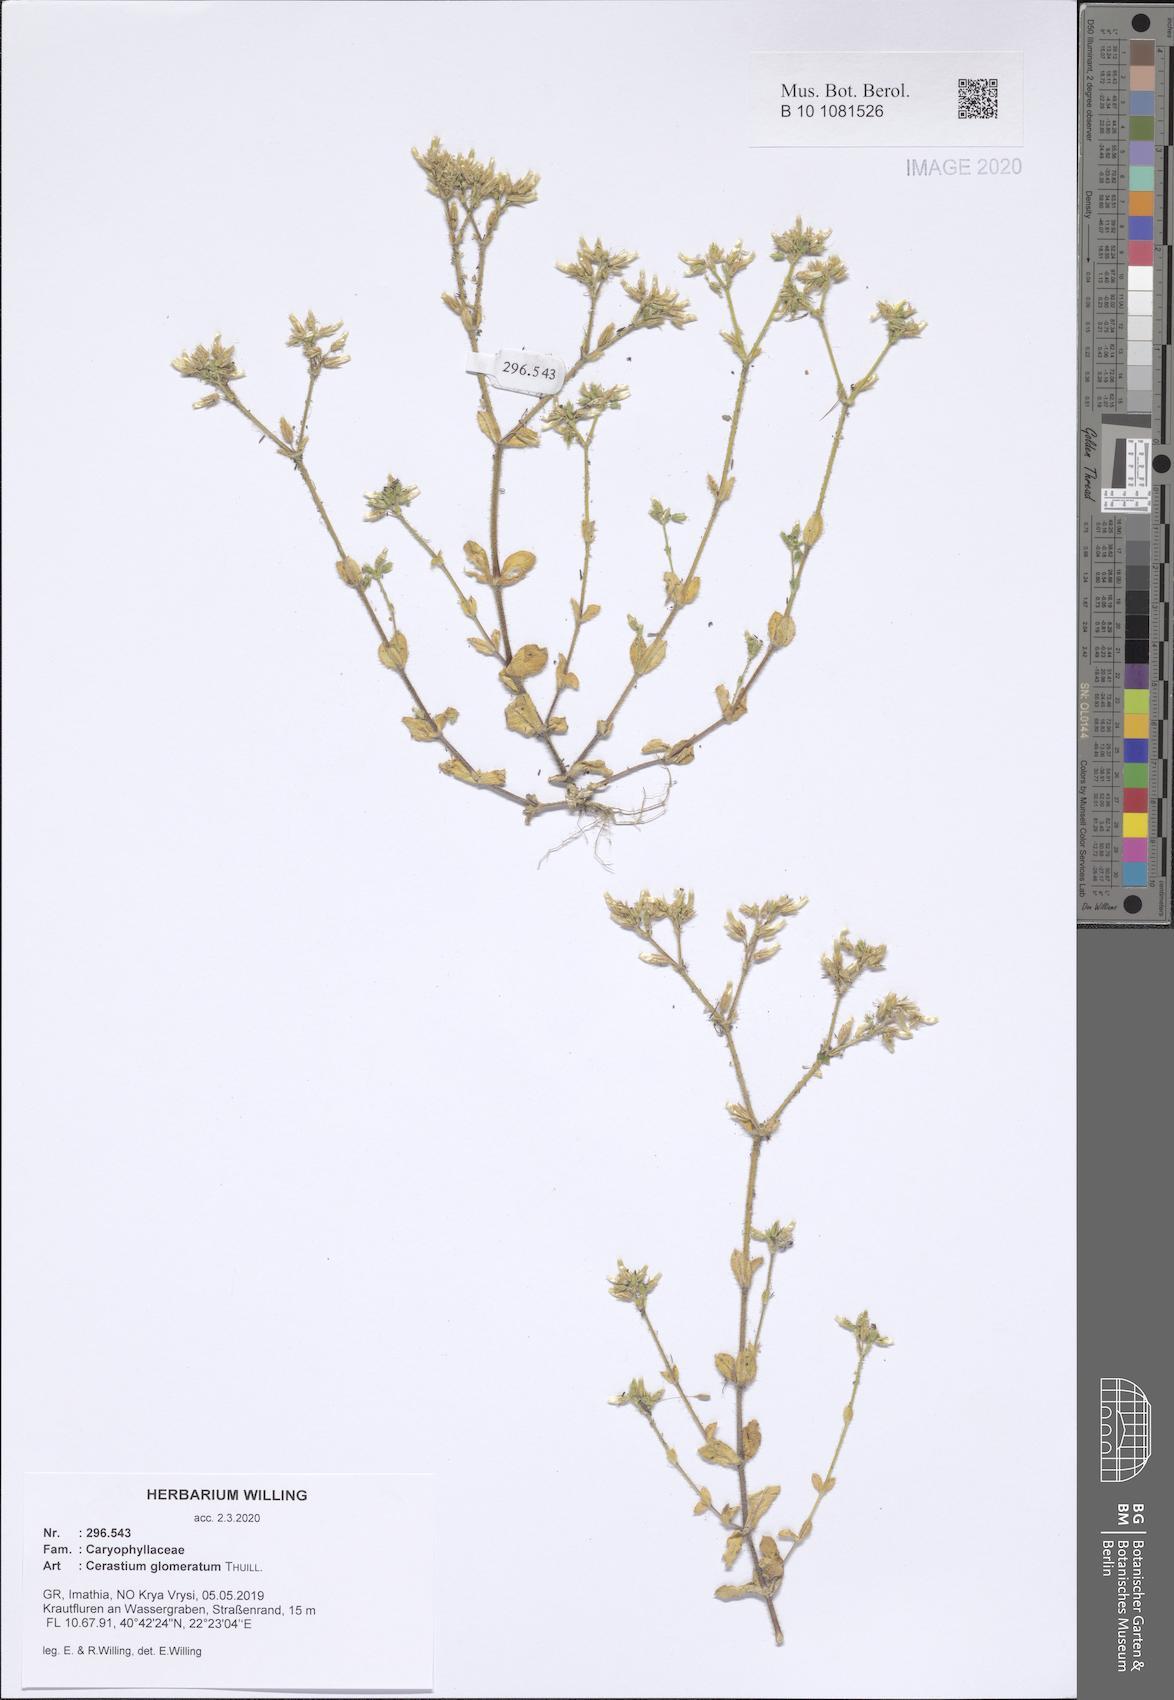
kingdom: Plantae
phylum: Tracheophyta
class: Magnoliopsida
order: Caryophyllales
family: Caryophyllaceae
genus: Cerastium
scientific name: Cerastium glomeratum
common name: Sticky chickweed
